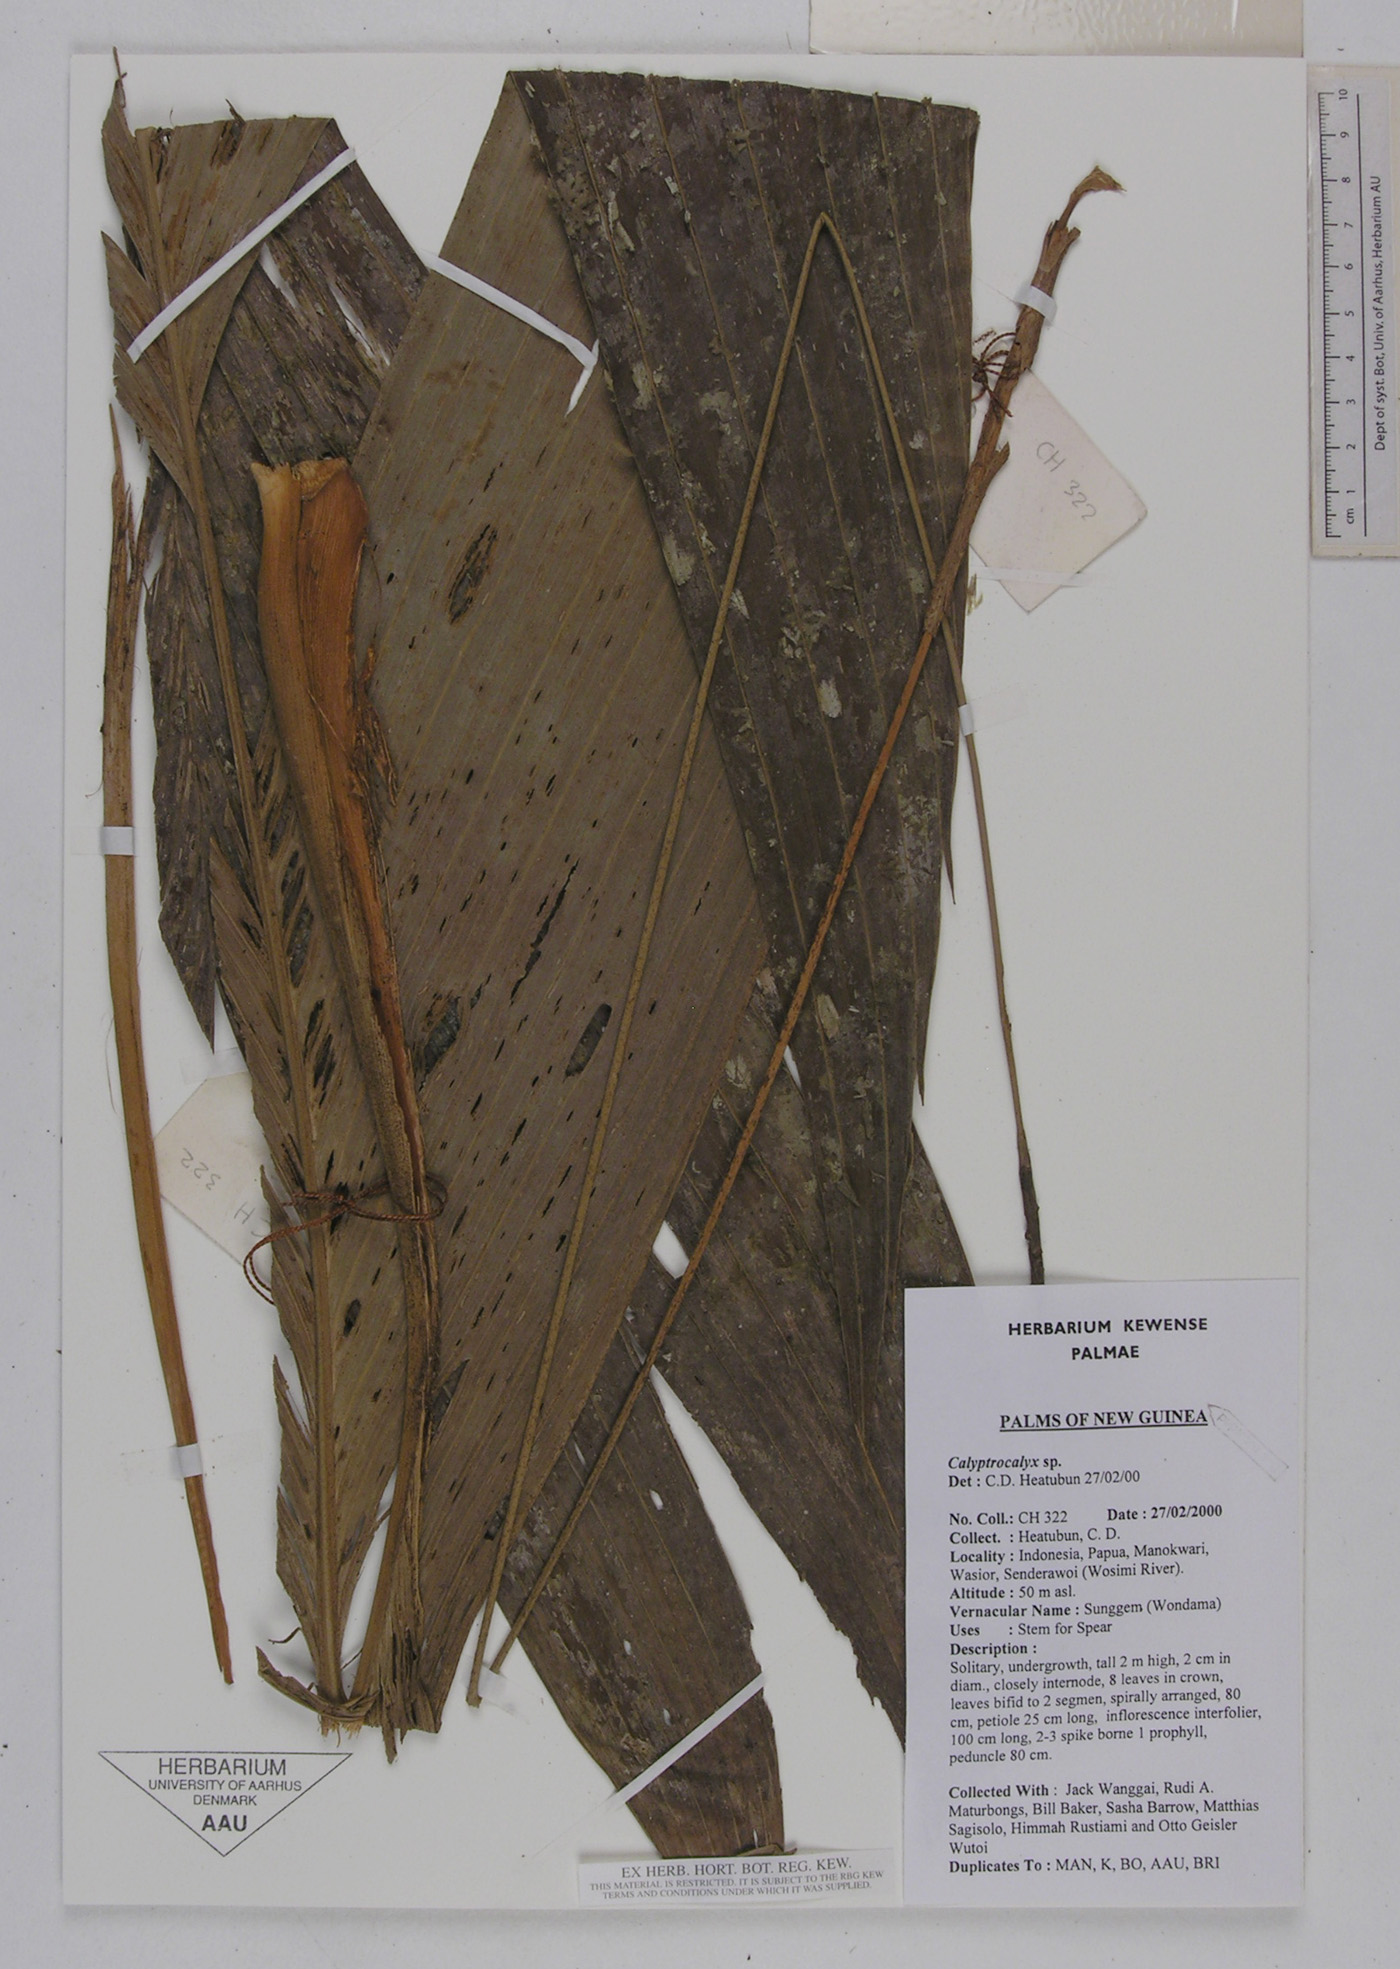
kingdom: Plantae
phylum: Tracheophyta
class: Liliopsida
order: Arecales
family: Arecaceae
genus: Calyptrocalyx
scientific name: Calyptrocalyx
